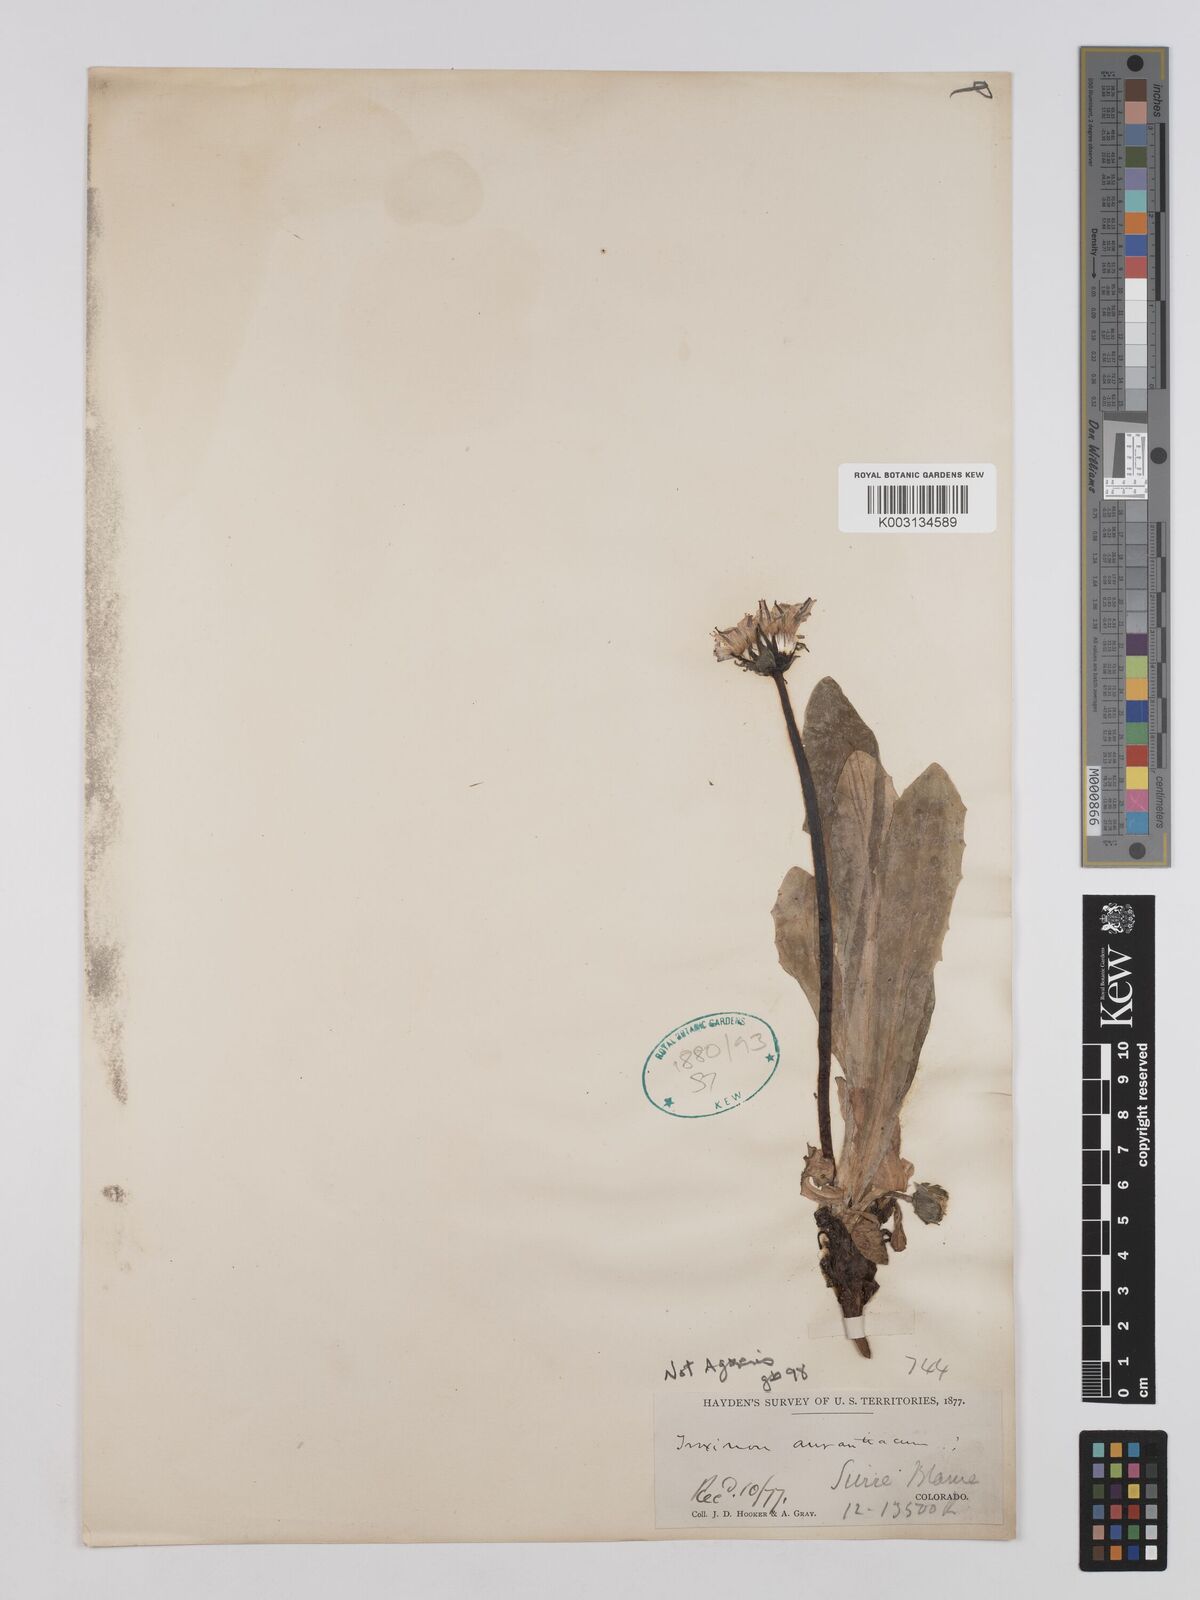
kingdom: Plantae
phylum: Tracheophyta
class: Magnoliopsida
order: Asterales
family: Asteraceae
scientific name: Asteraceae
